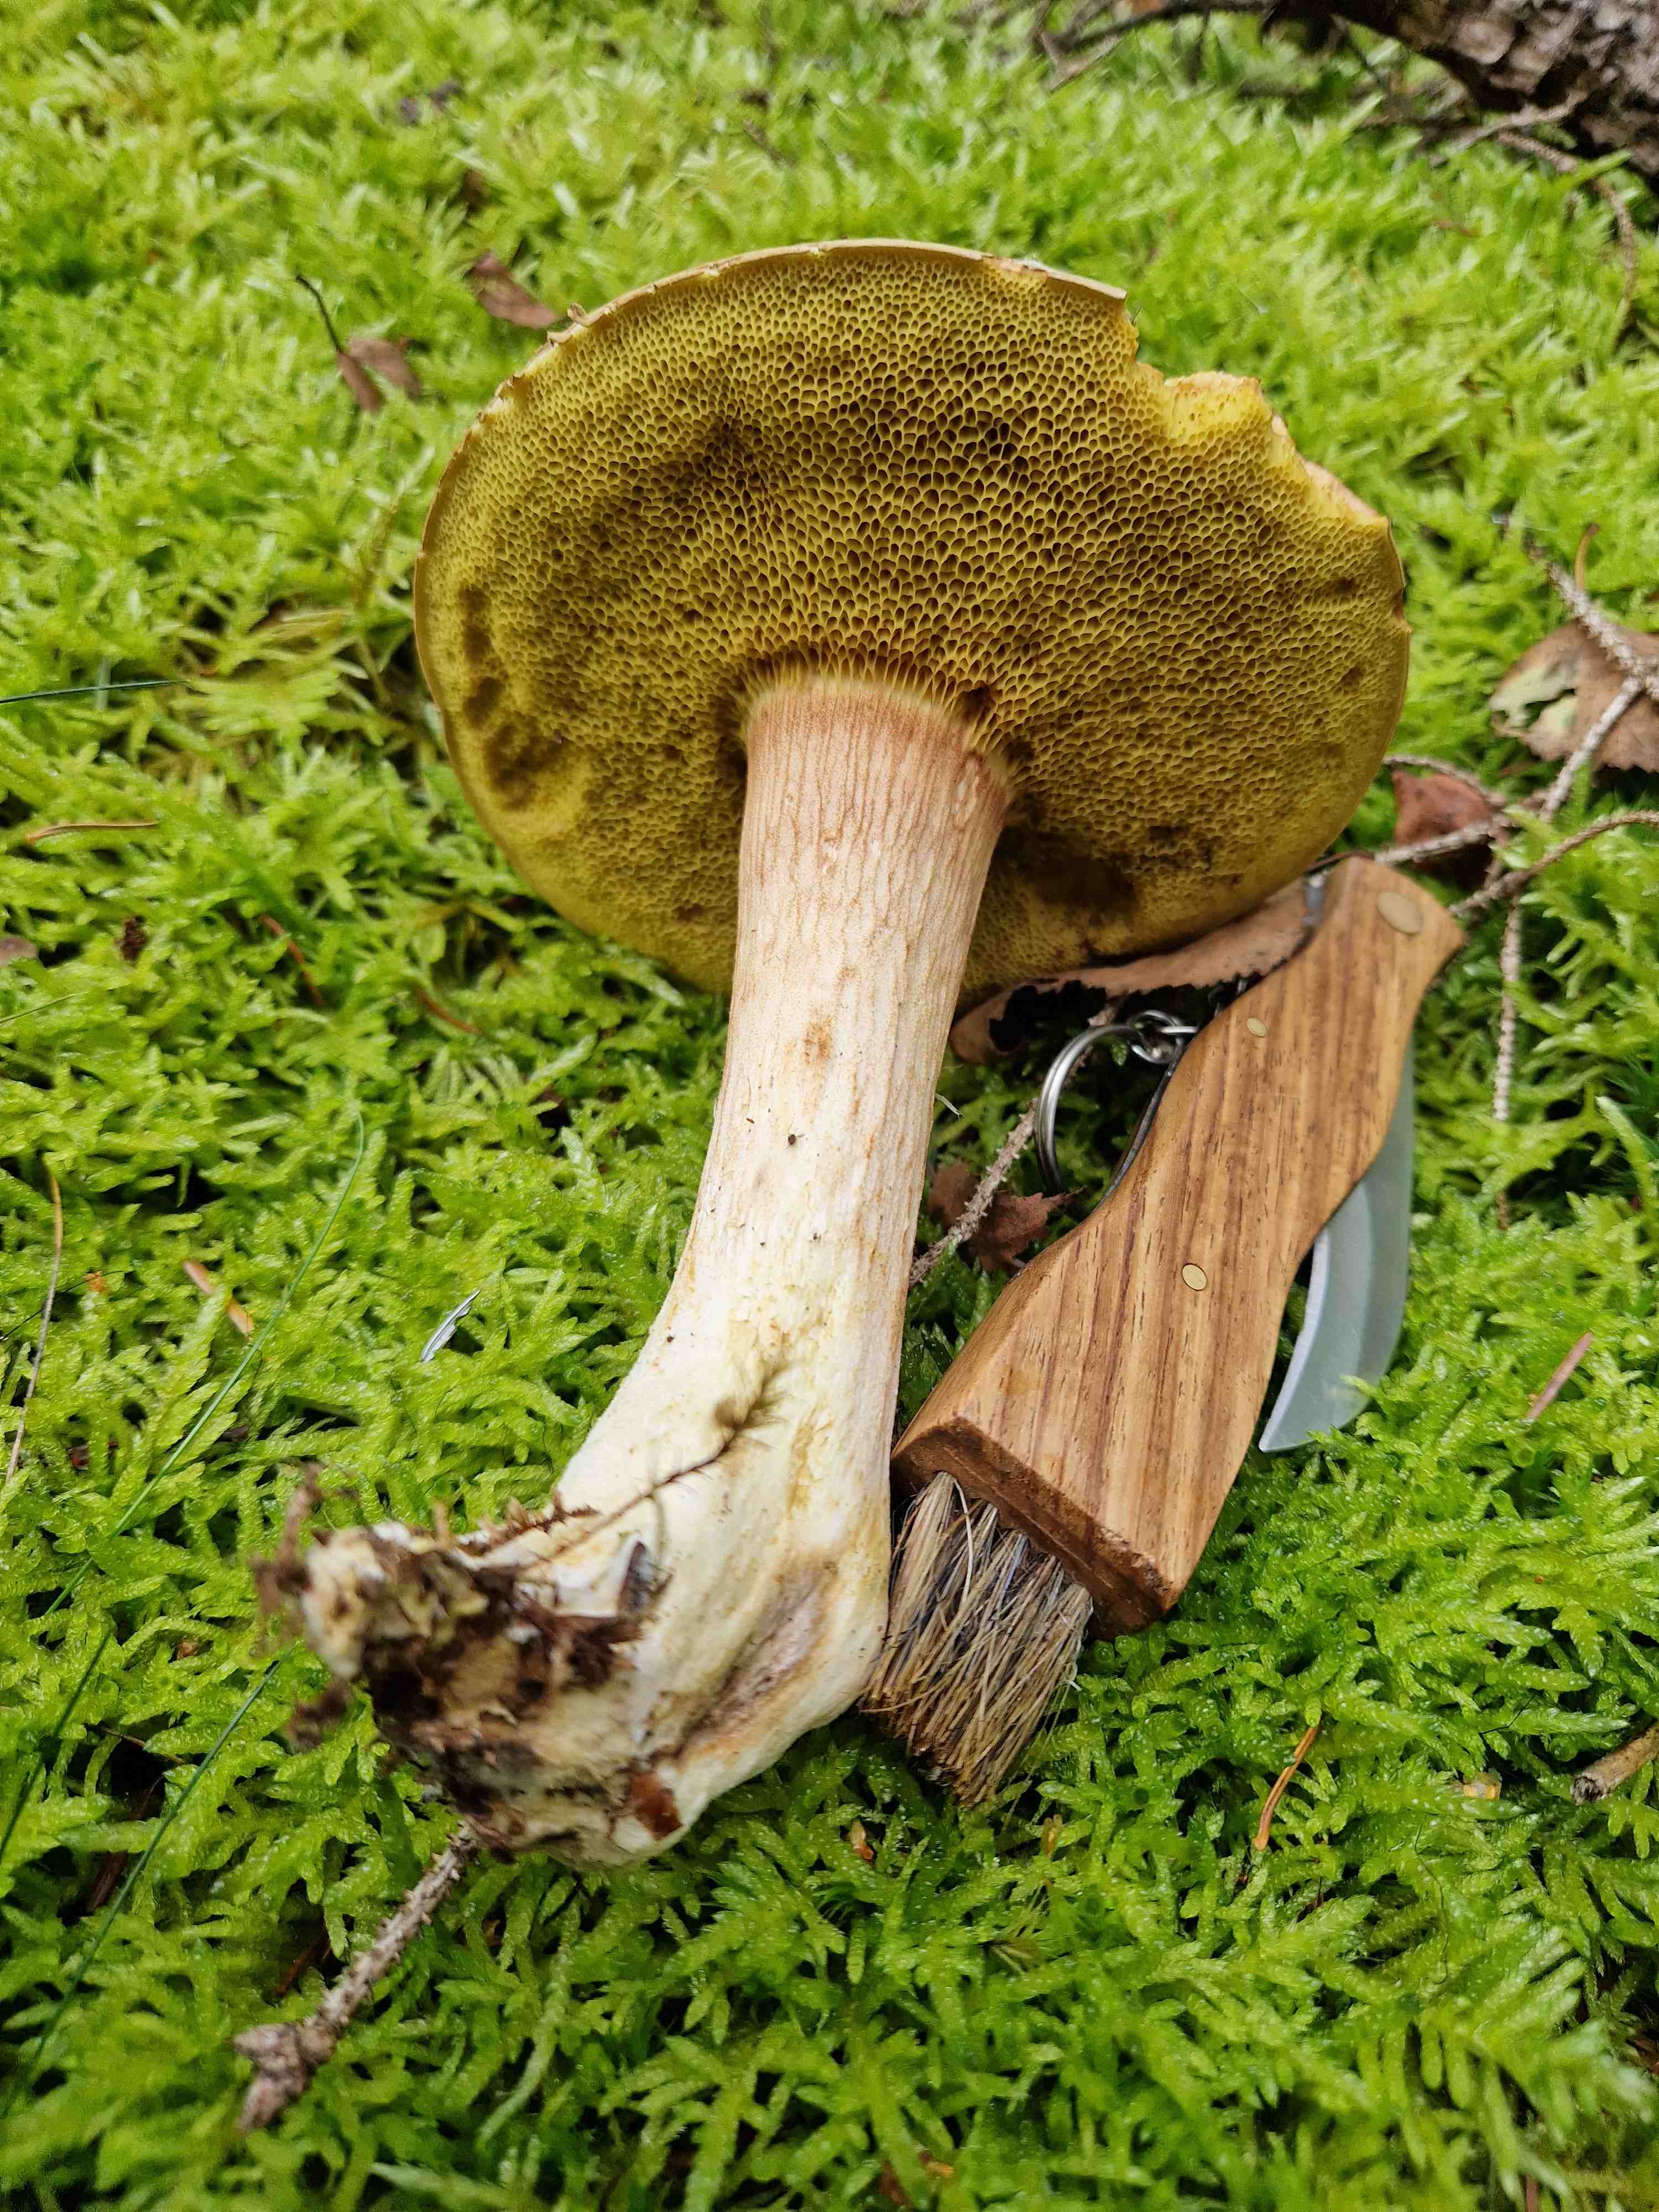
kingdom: Fungi
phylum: Basidiomycota
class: Agaricomycetes
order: Boletales
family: Boletaceae
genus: Xerocomus
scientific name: Xerocomus
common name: filtrørhat
